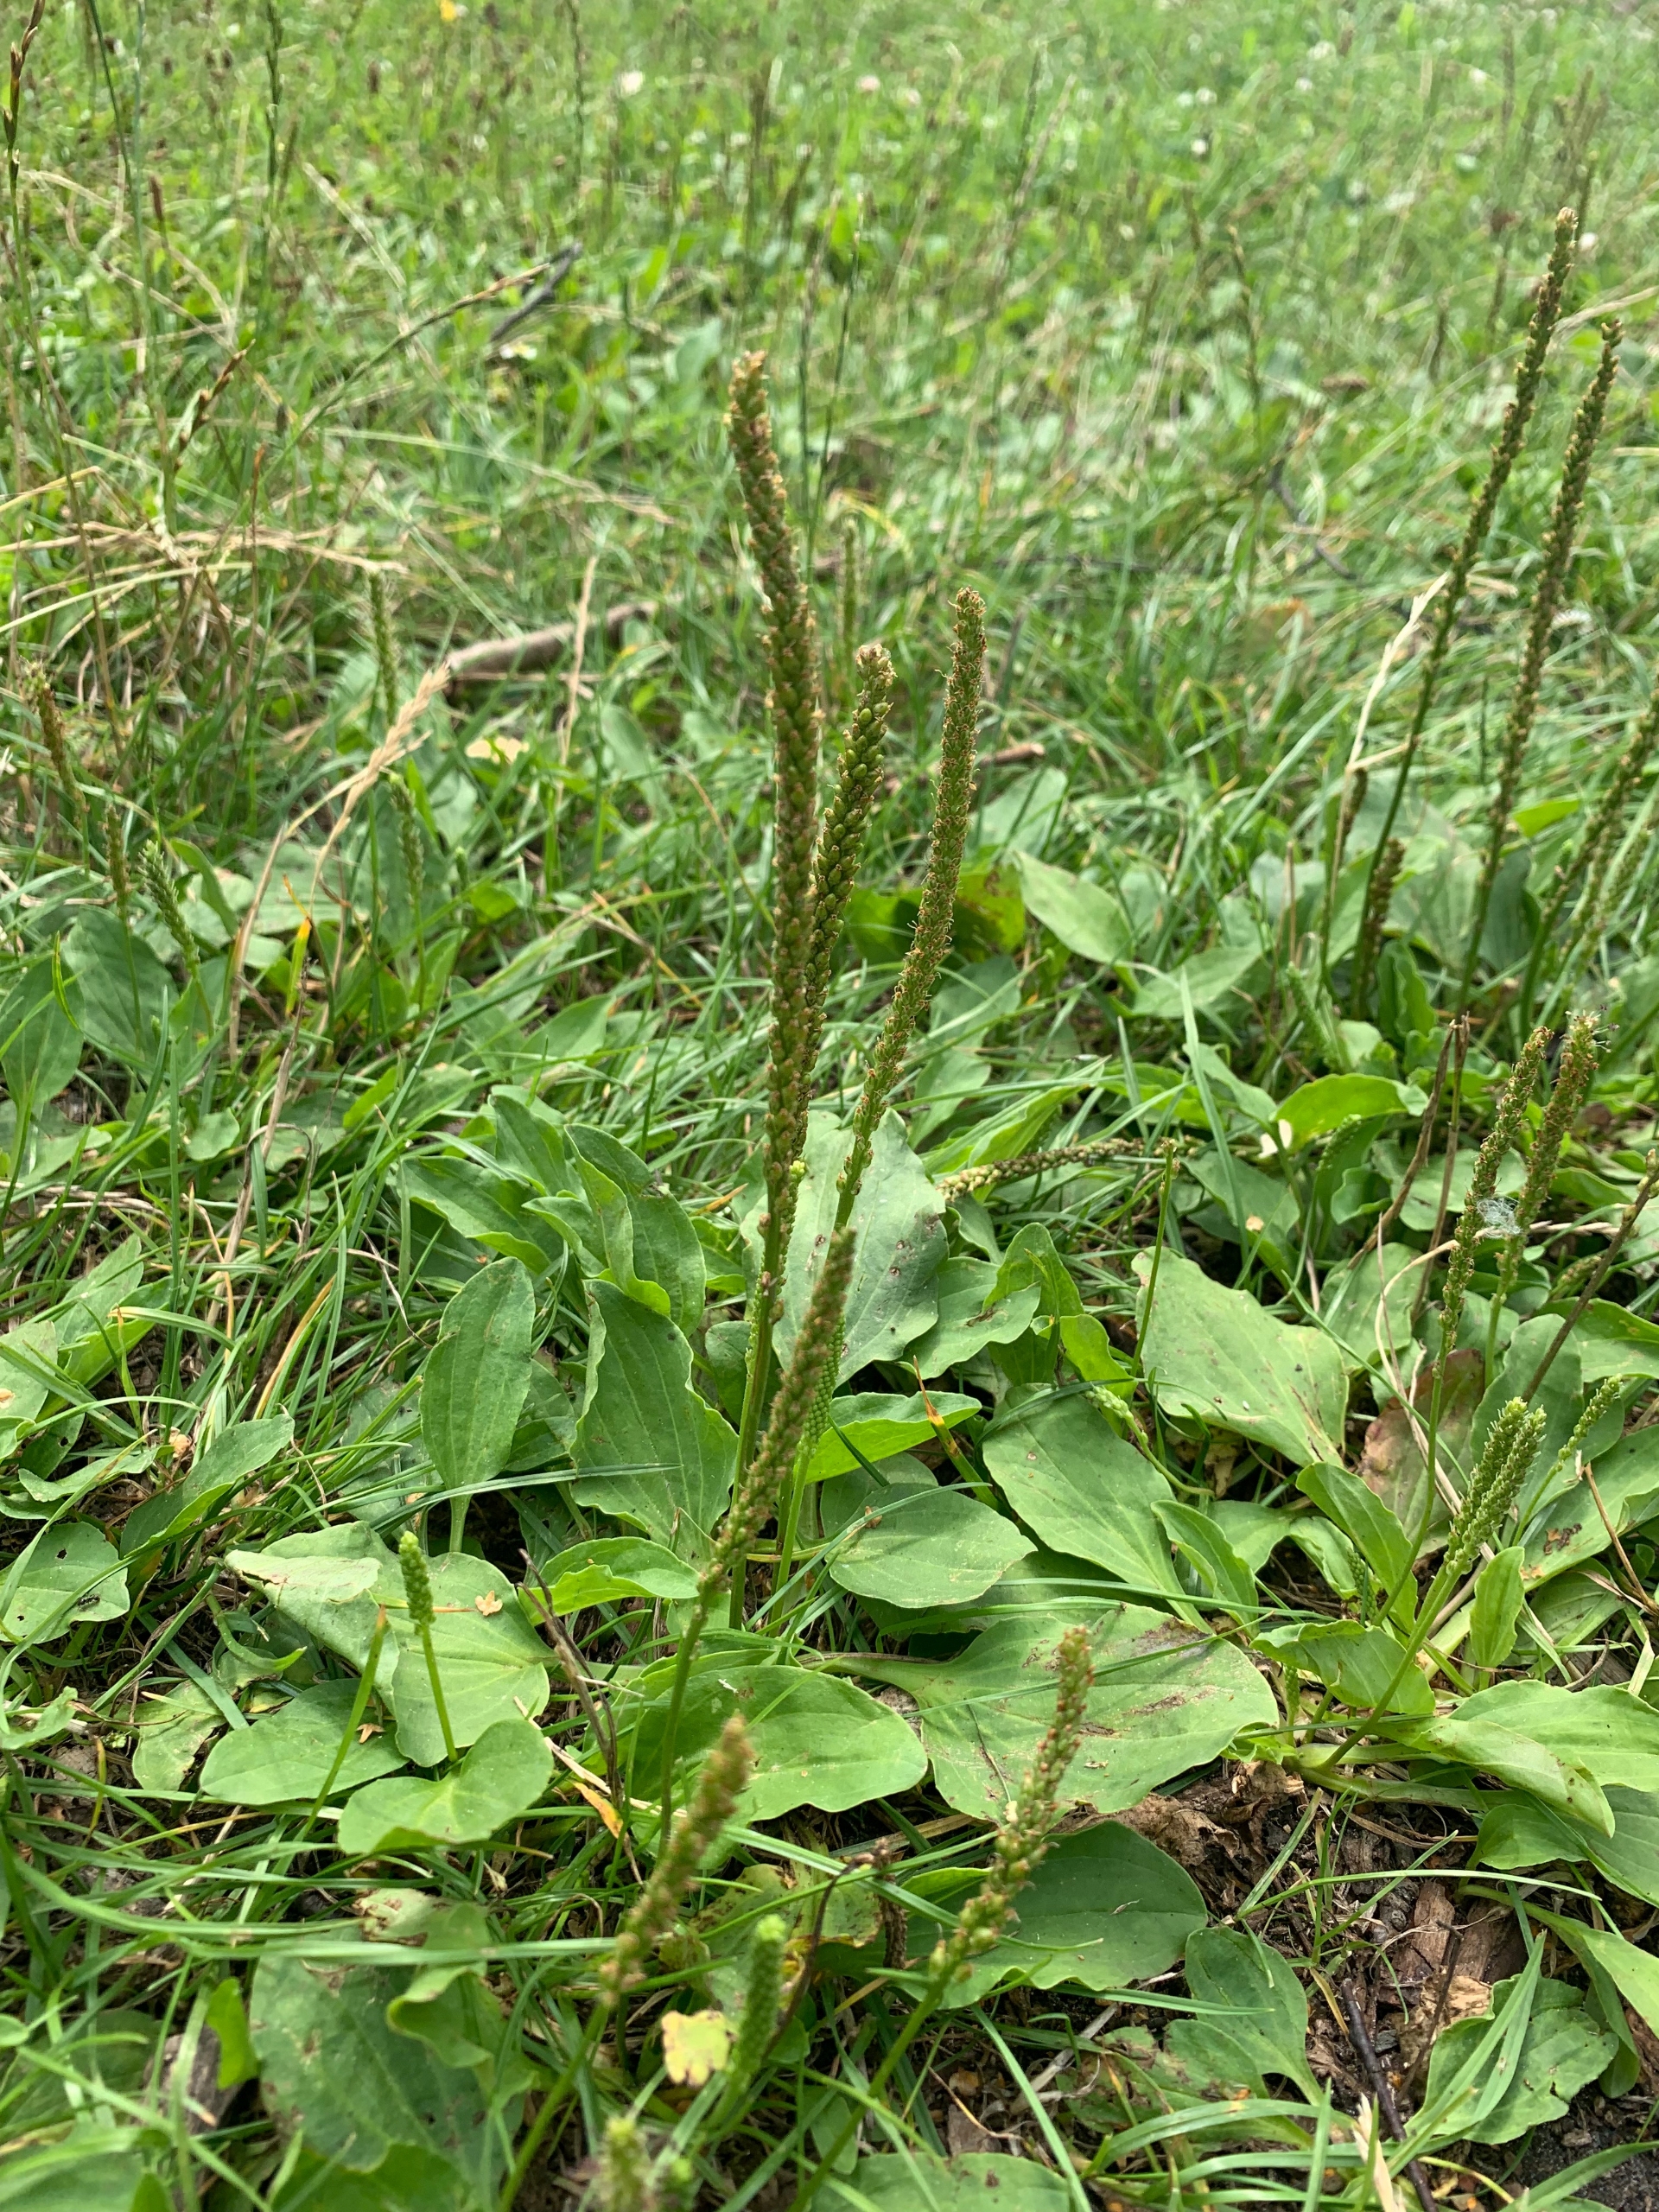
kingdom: Plantae
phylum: Tracheophyta
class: Magnoliopsida
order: Lamiales
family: Plantaginaceae
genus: Plantago
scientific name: Plantago major
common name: Glat vejbred
